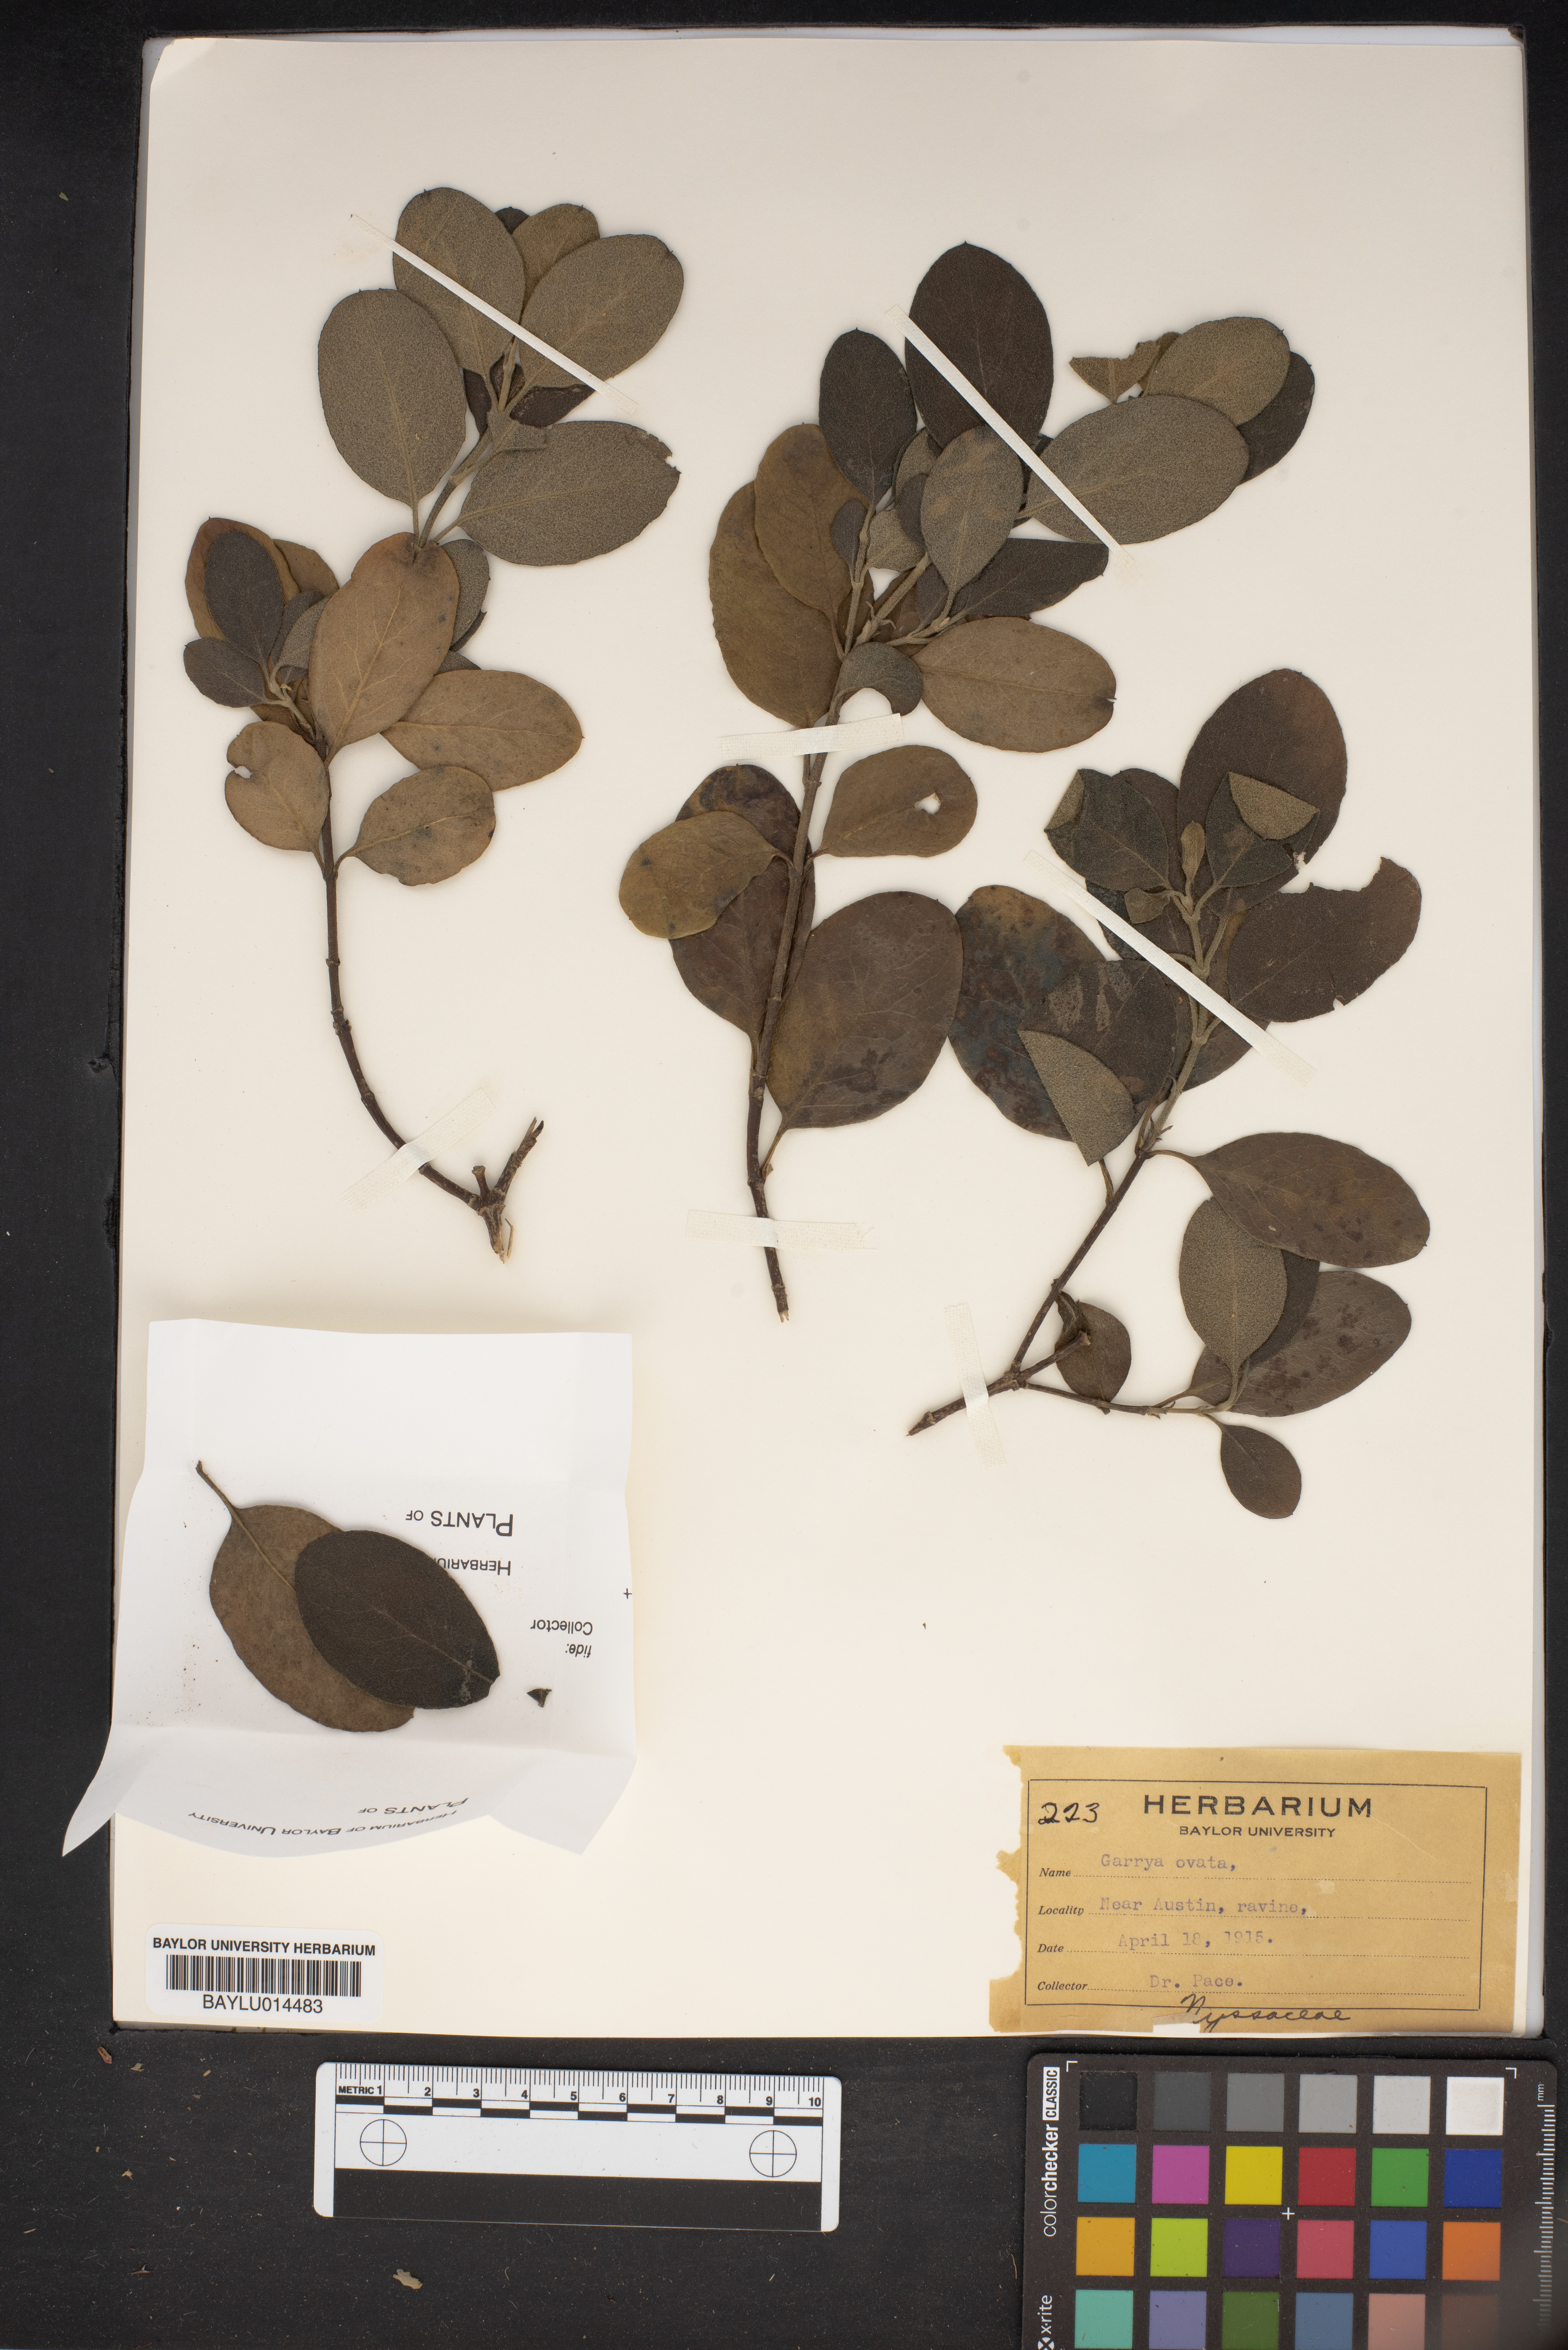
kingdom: Plantae
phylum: Tracheophyta
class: Magnoliopsida
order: Garryales
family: Garryaceae
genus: Garrya
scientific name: Garrya ovata
